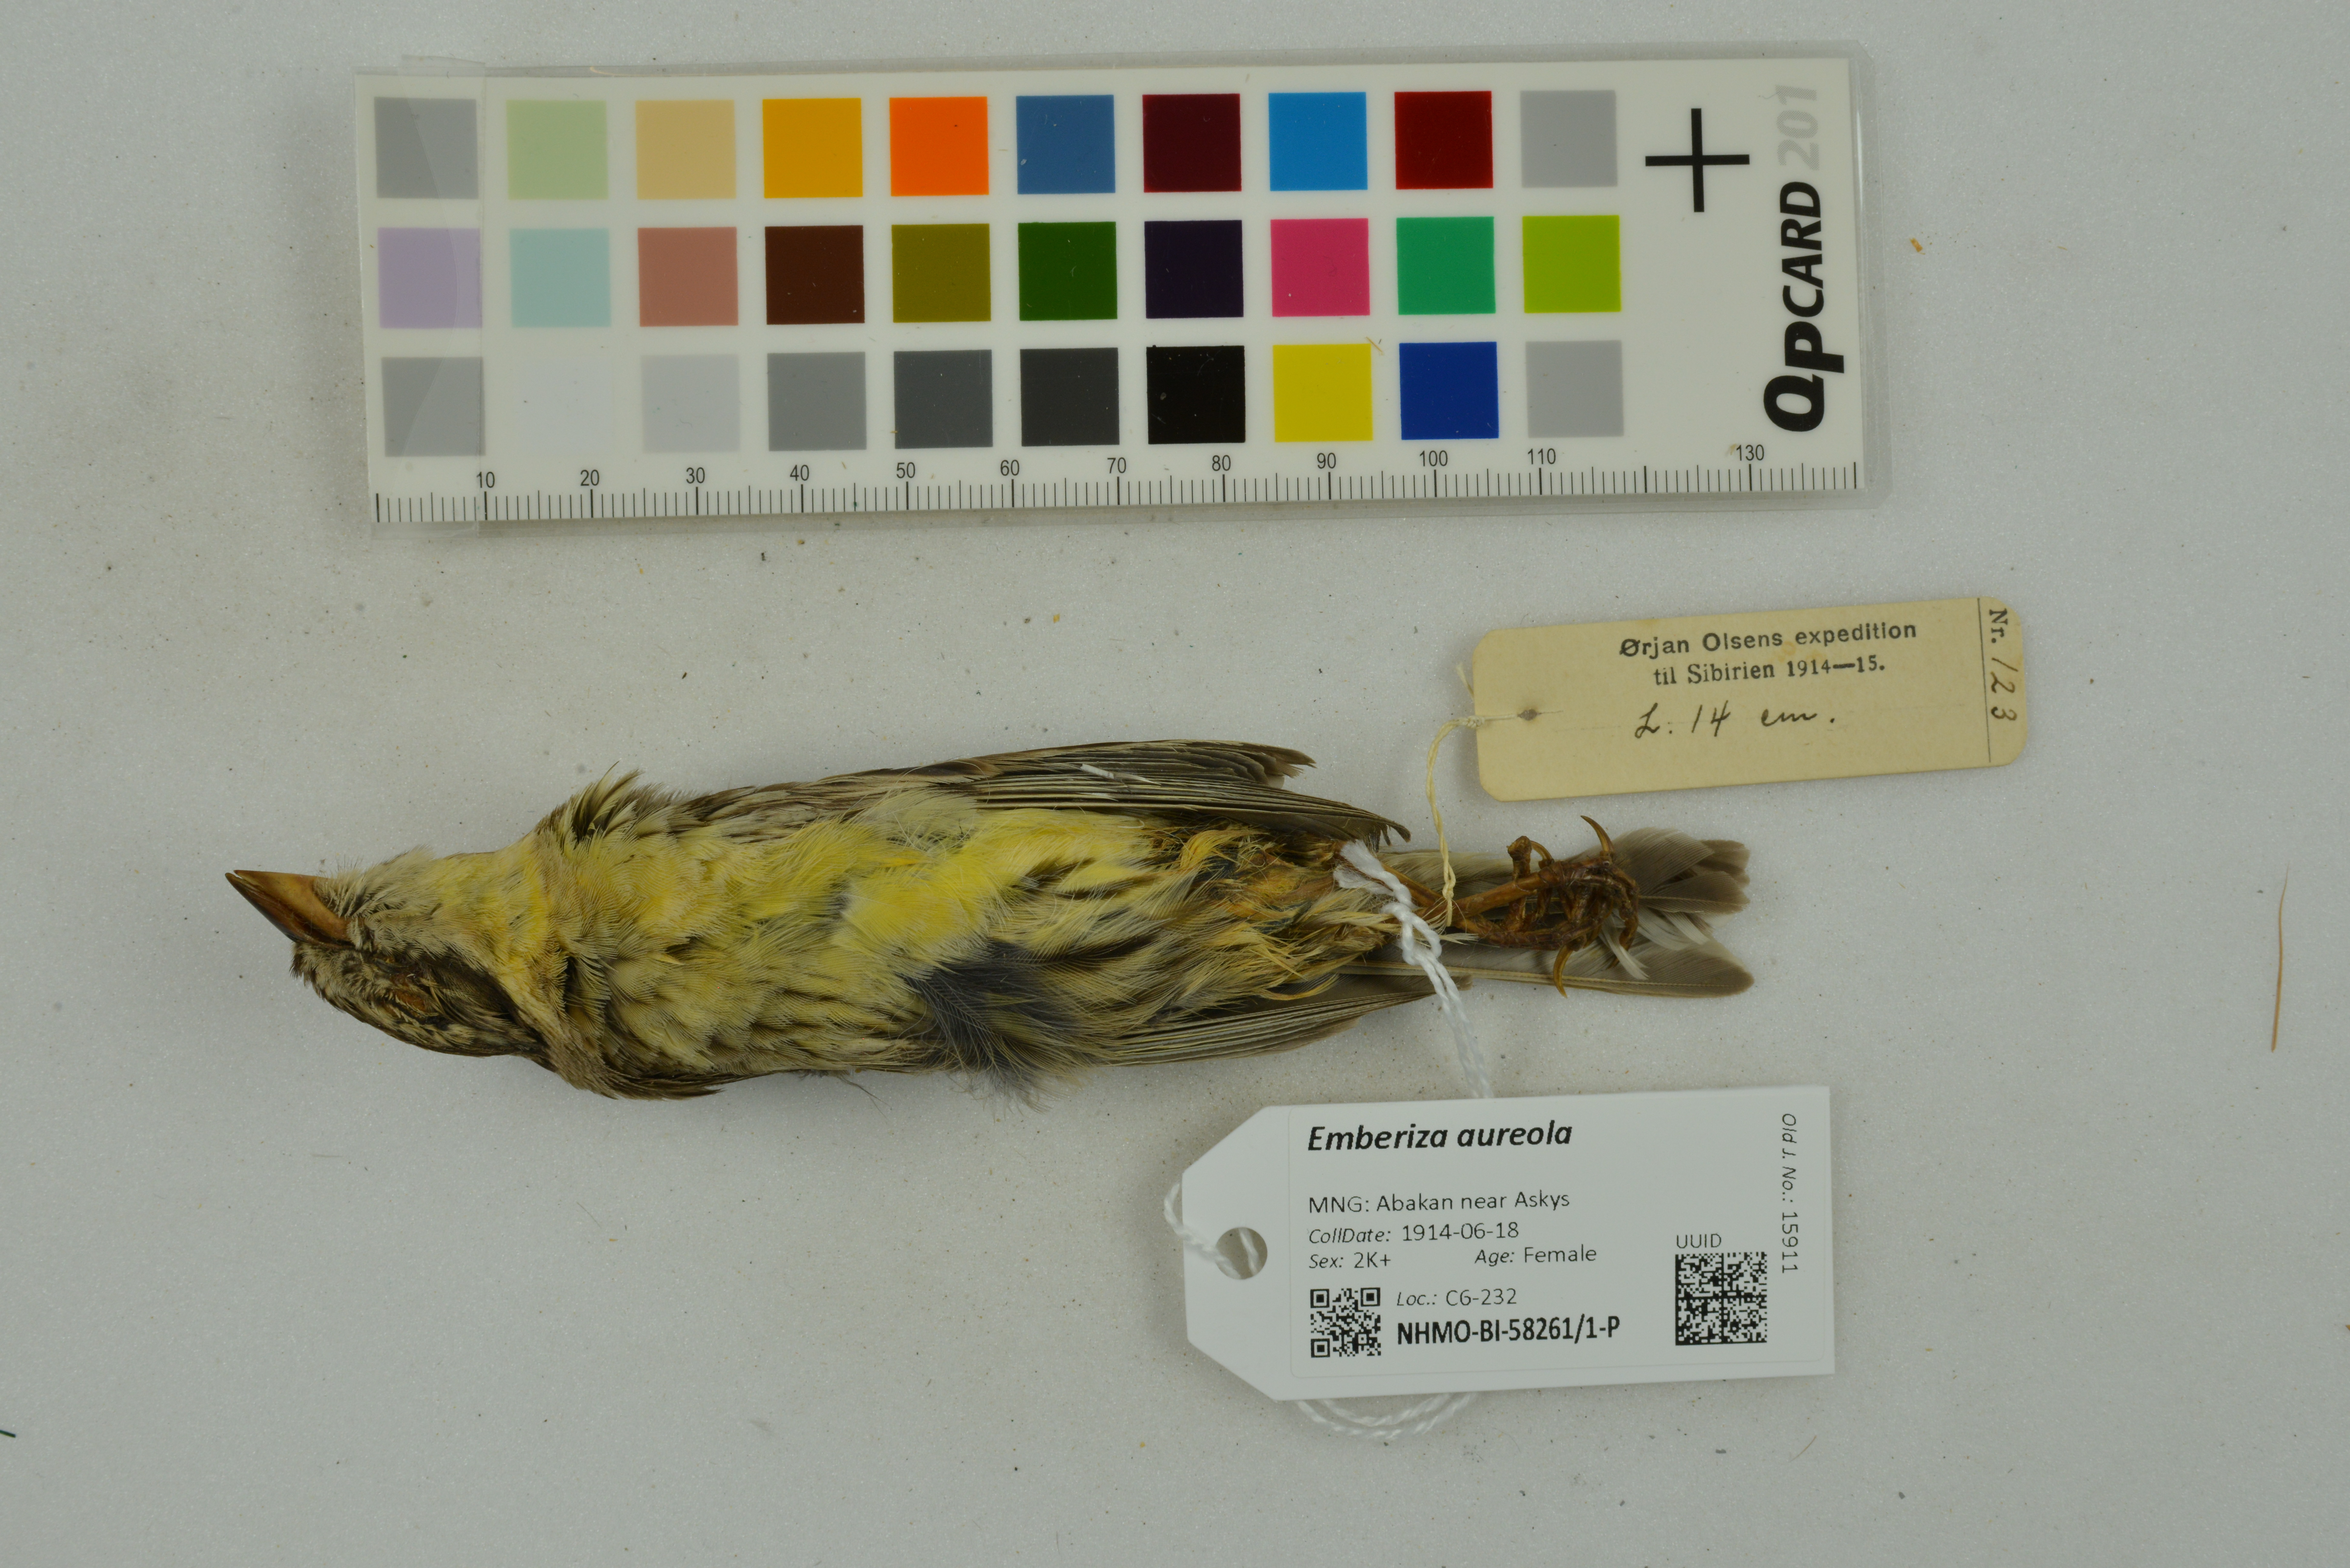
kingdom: Animalia
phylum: Chordata
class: Aves
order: Passeriformes
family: Emberizidae
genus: Emberiza
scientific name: Emberiza aureola
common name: Yellow-breasted bunting
